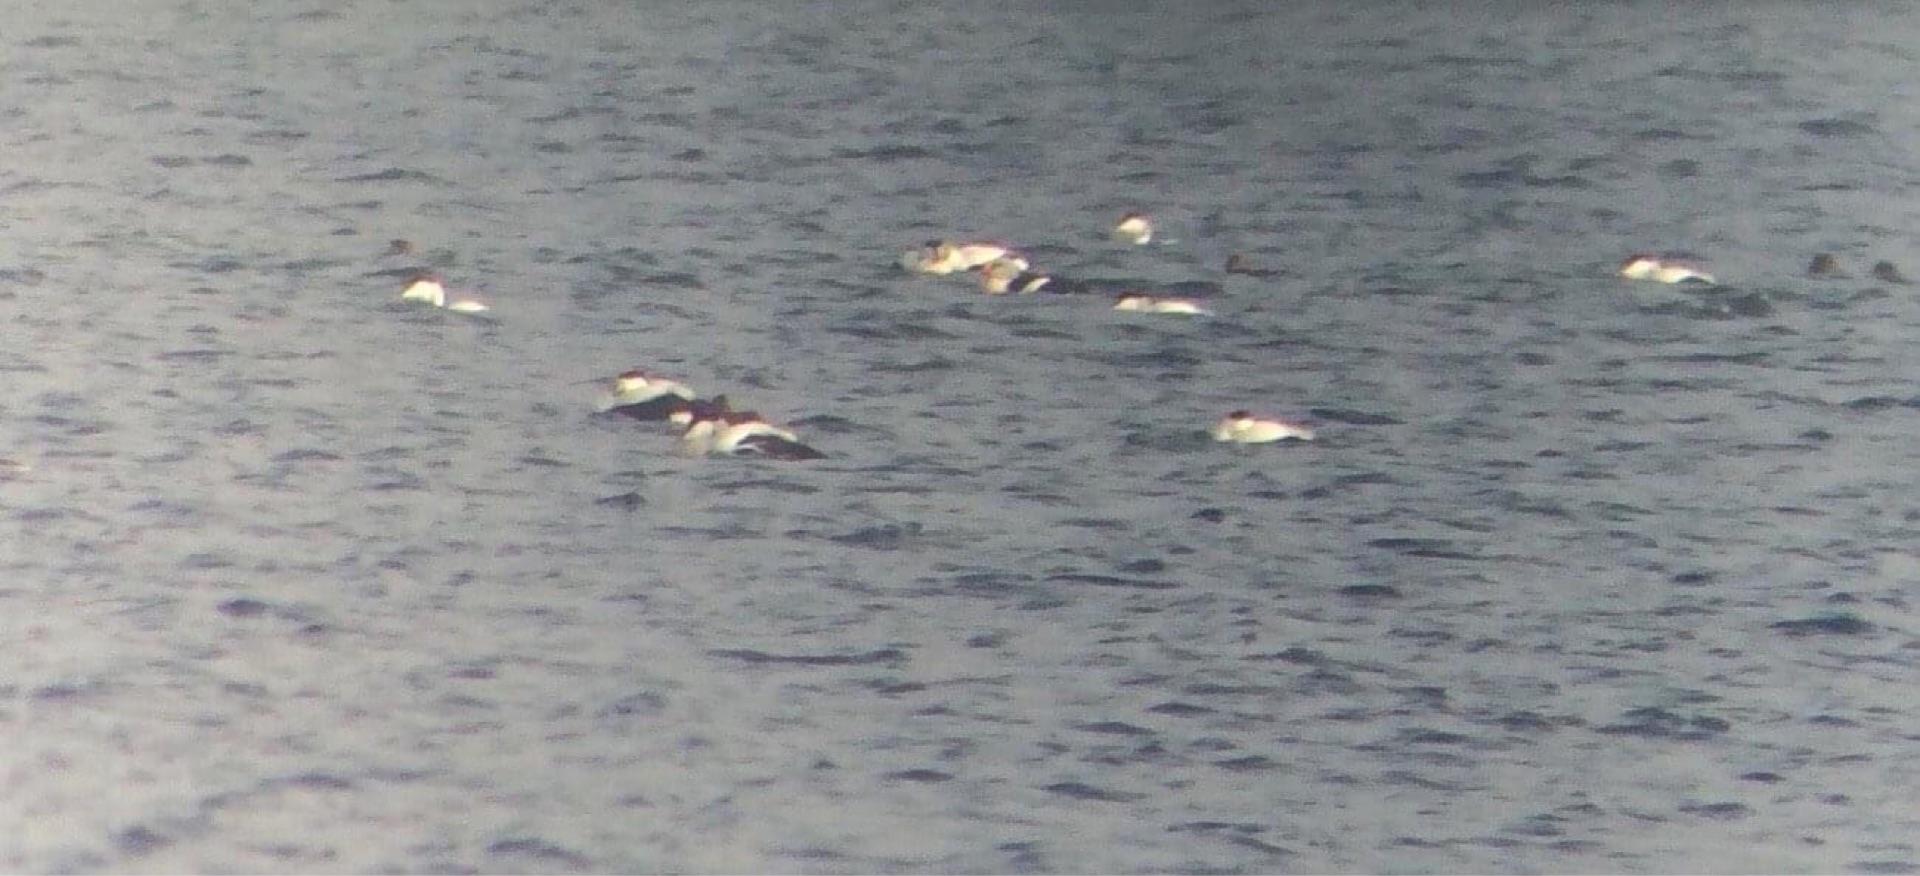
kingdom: Animalia
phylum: Chordata
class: Aves
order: Anseriformes
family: Anatidae
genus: Somateria
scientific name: Somateria spectabilis
